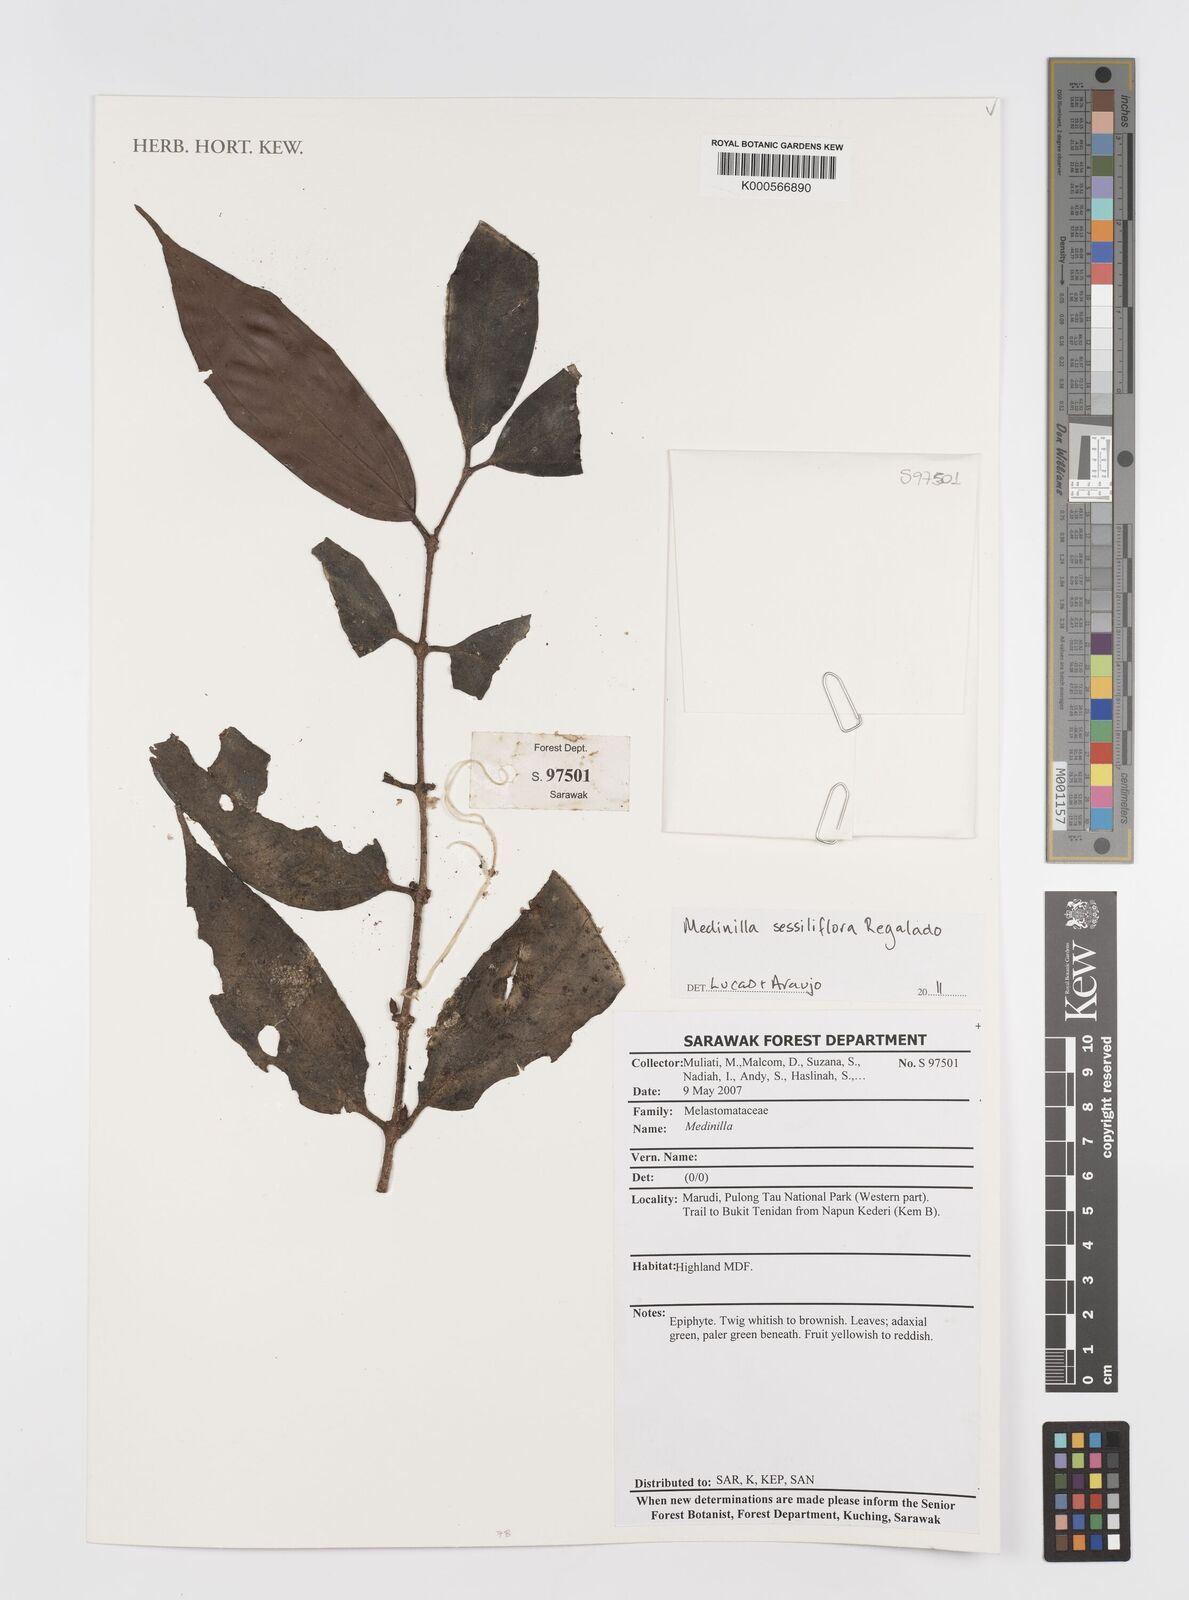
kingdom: Plantae
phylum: Tracheophyta
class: Magnoliopsida
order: Myrtales
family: Melastomataceae
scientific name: Melastomataceae
